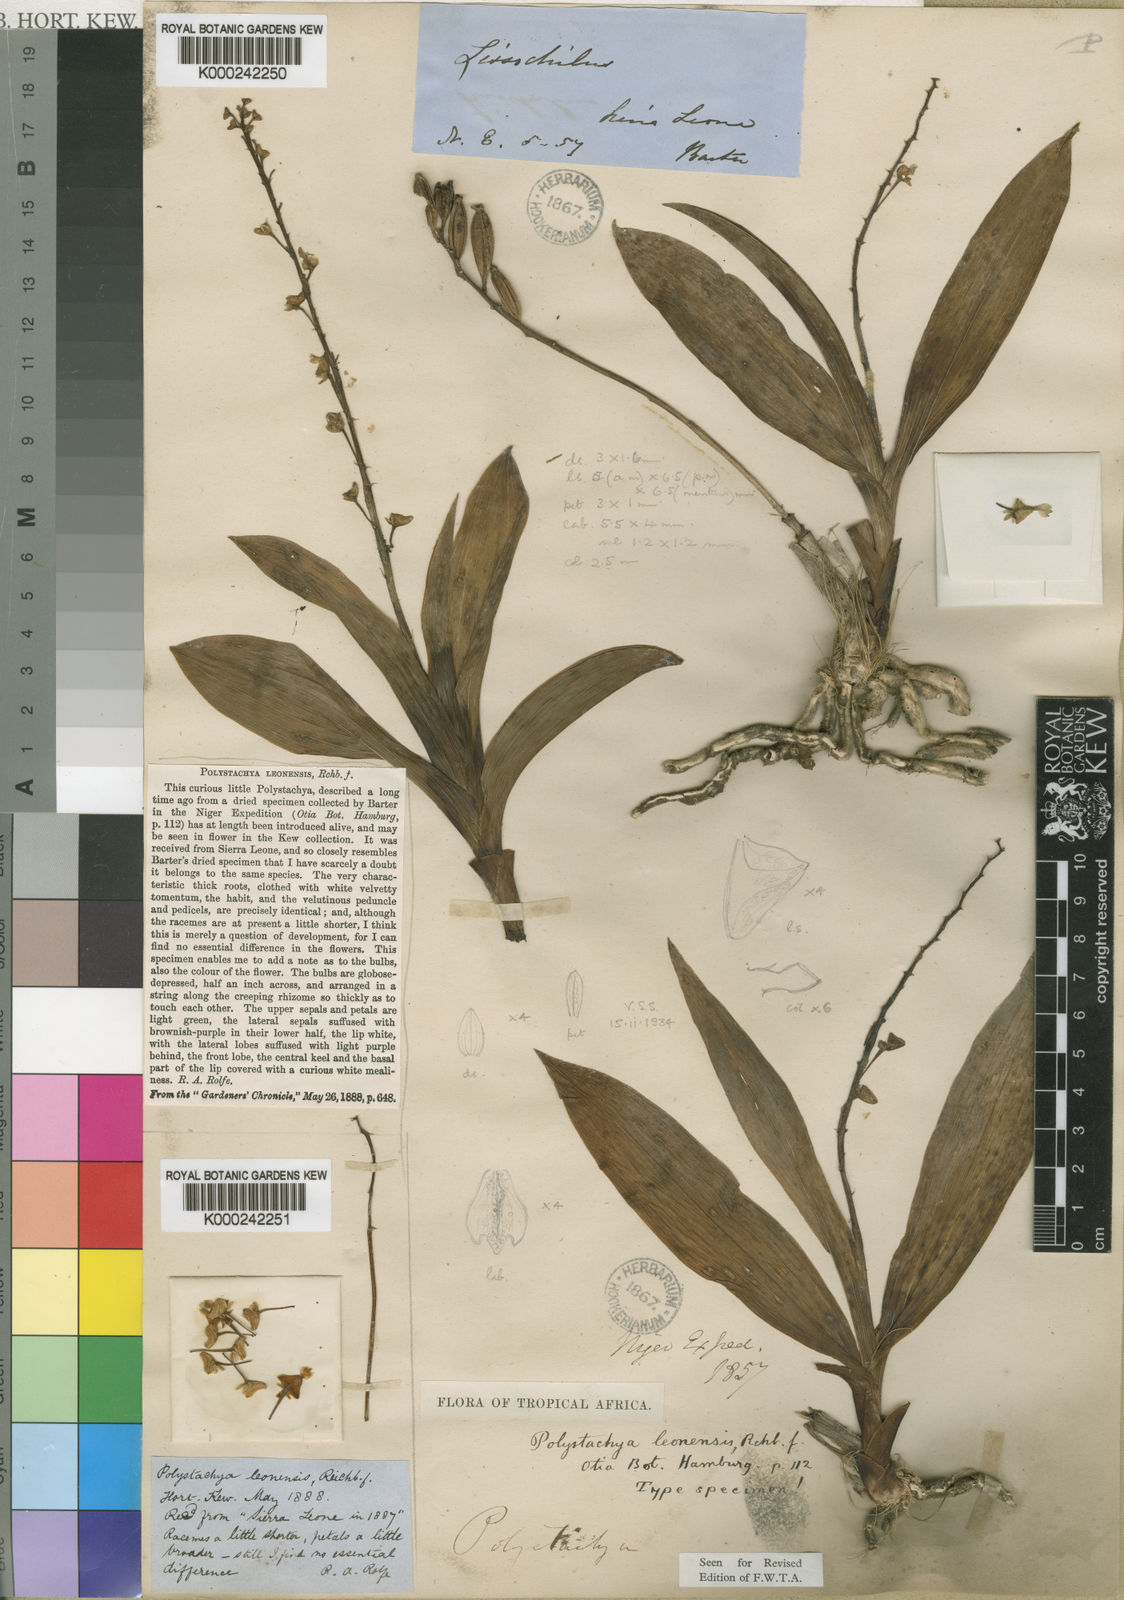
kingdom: Plantae
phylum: Tracheophyta
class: Liliopsida
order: Asparagales
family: Orchidaceae
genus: Polystachya
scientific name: Polystachya leonensis
